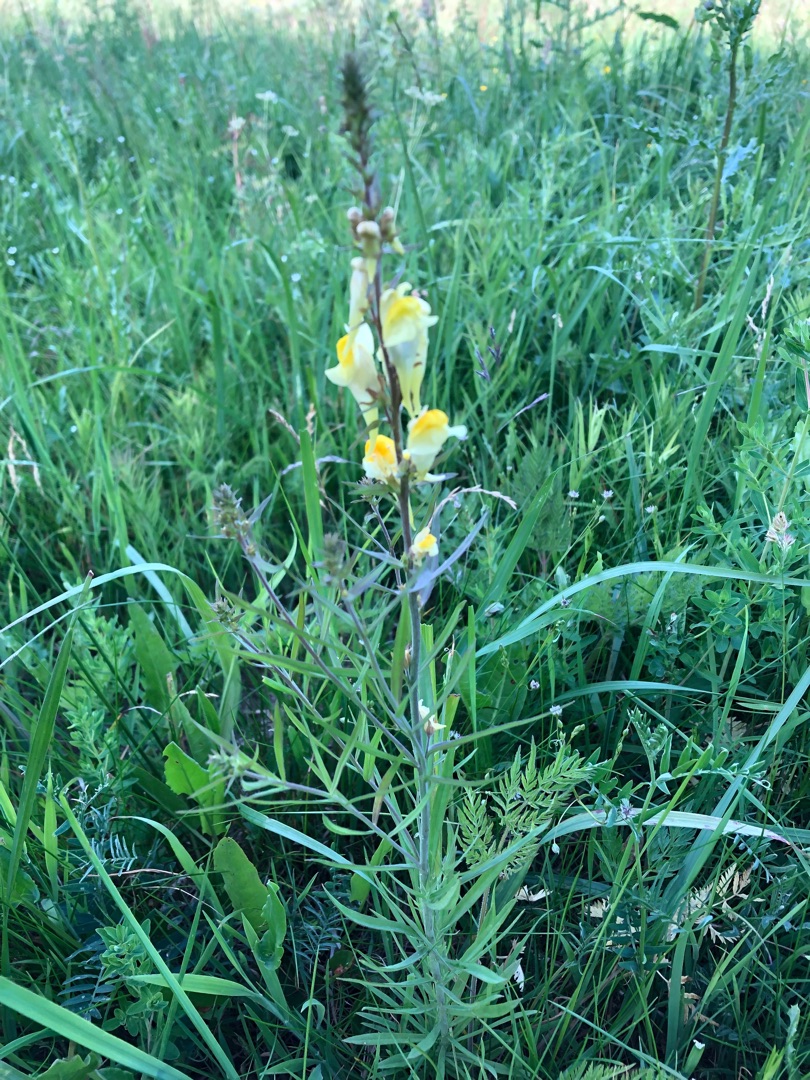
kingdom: Plantae
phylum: Tracheophyta
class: Magnoliopsida
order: Lamiales
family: Plantaginaceae
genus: Linaria
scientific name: Linaria vulgaris
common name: Almindelig torskemund
